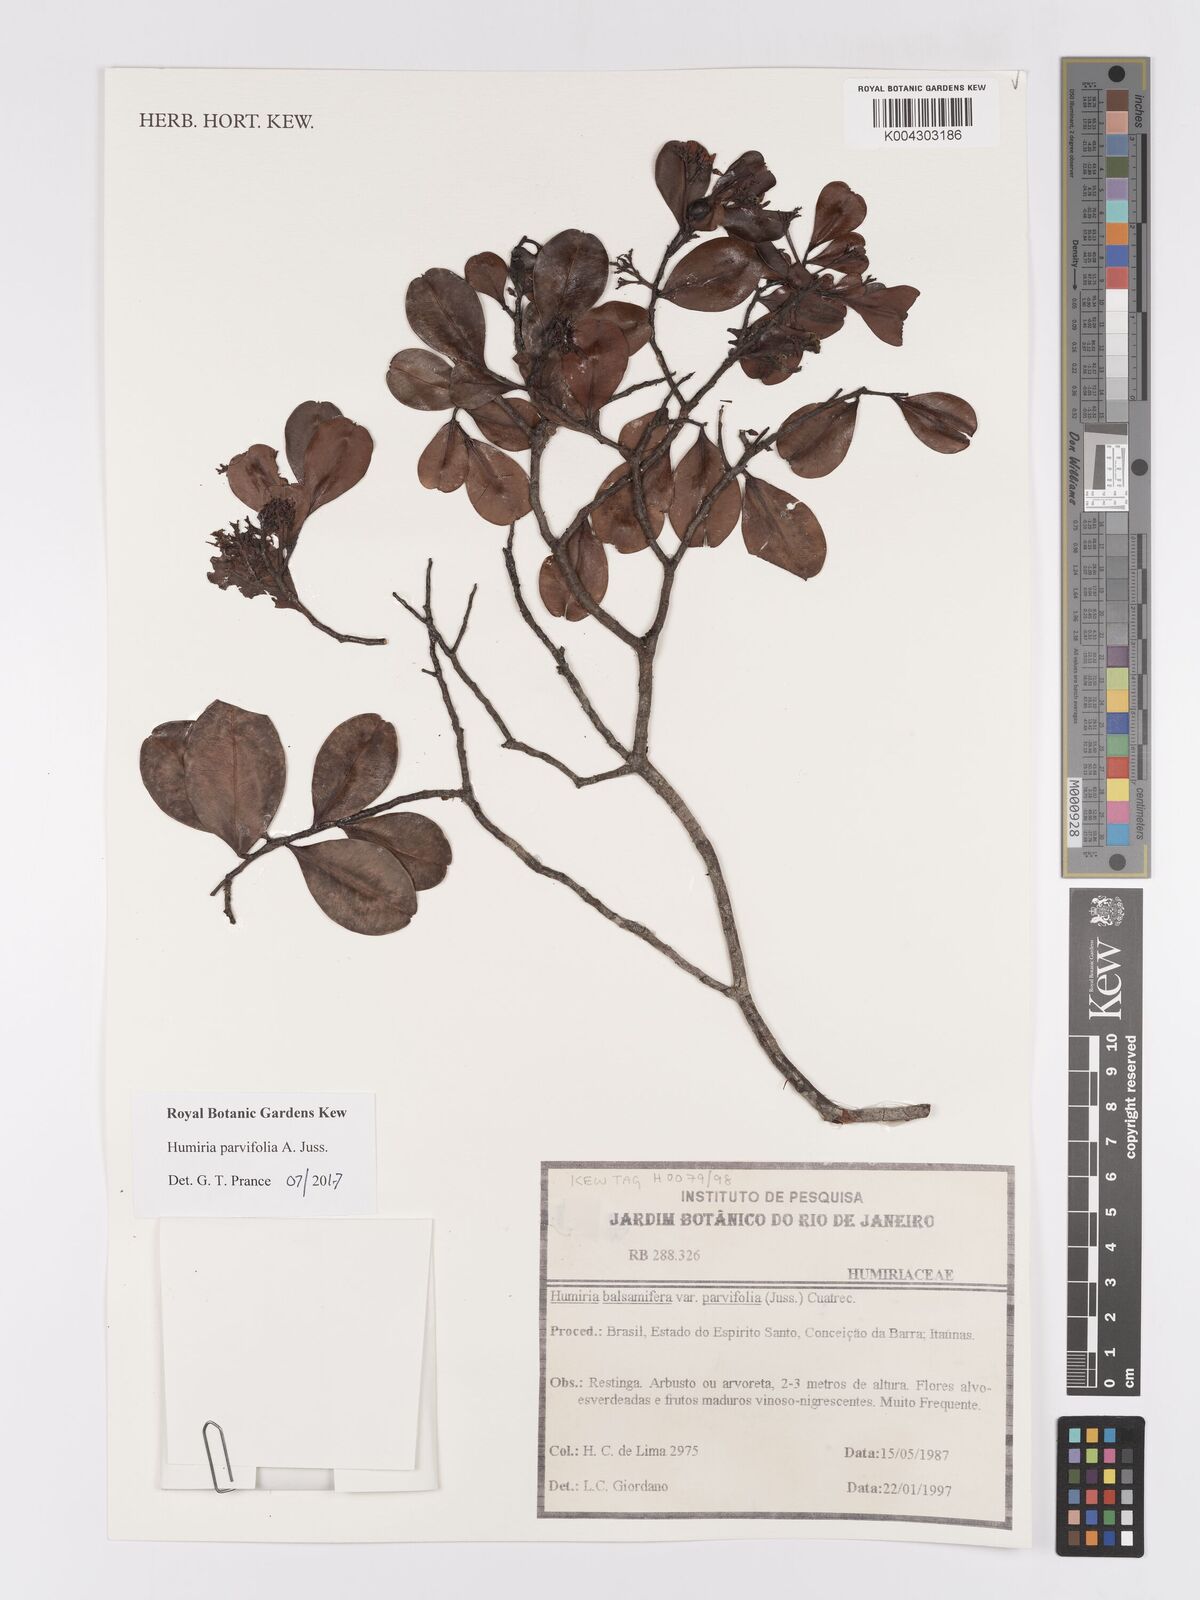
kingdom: Plantae
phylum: Tracheophyta
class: Magnoliopsida
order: Malpighiales
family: Humiriaceae
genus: Humiria
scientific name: Humiria parvifolia
